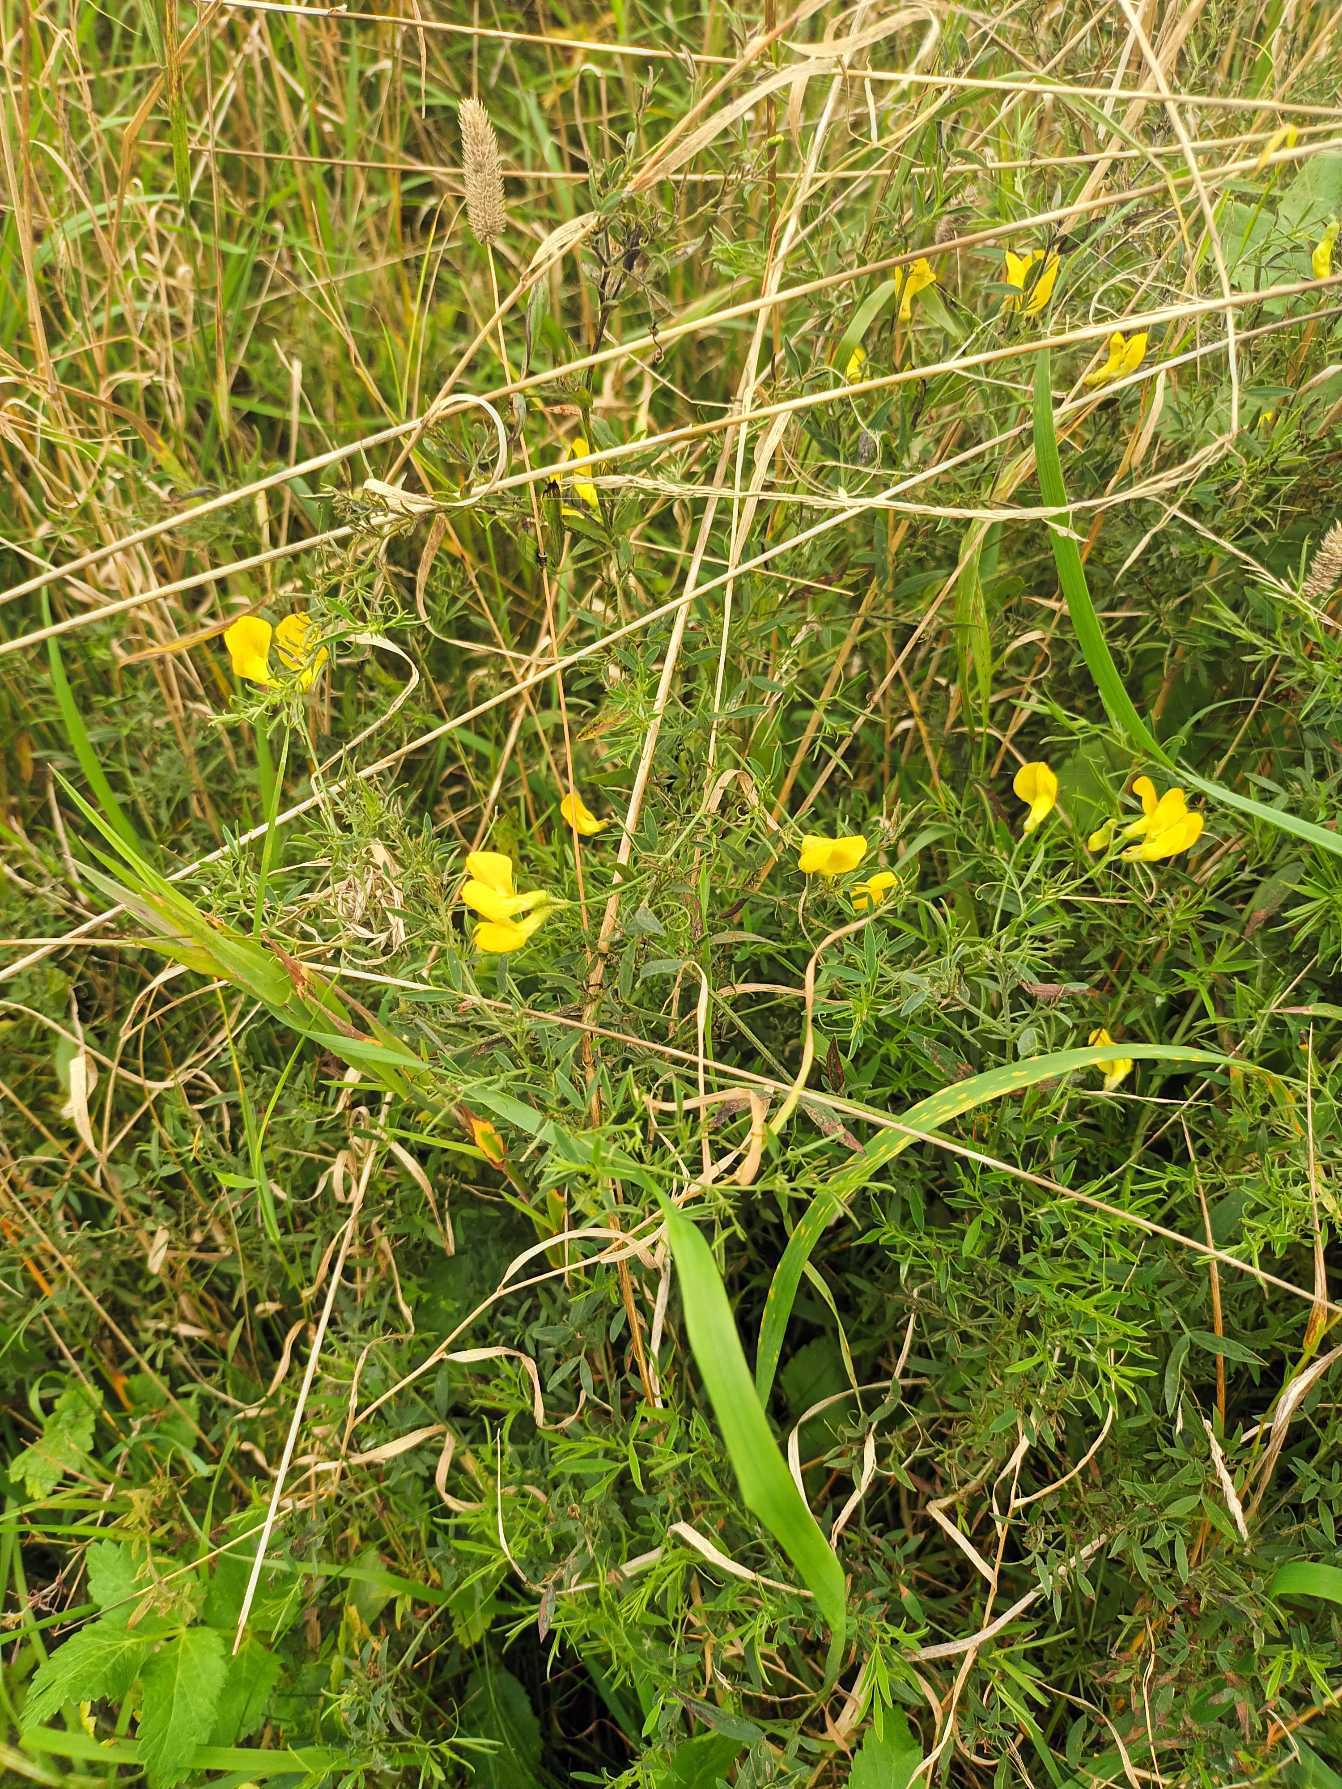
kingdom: Plantae
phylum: Tracheophyta
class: Magnoliopsida
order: Fabales
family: Fabaceae
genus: Lathyrus
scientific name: Lathyrus pratensis
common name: Gul fladbælg
